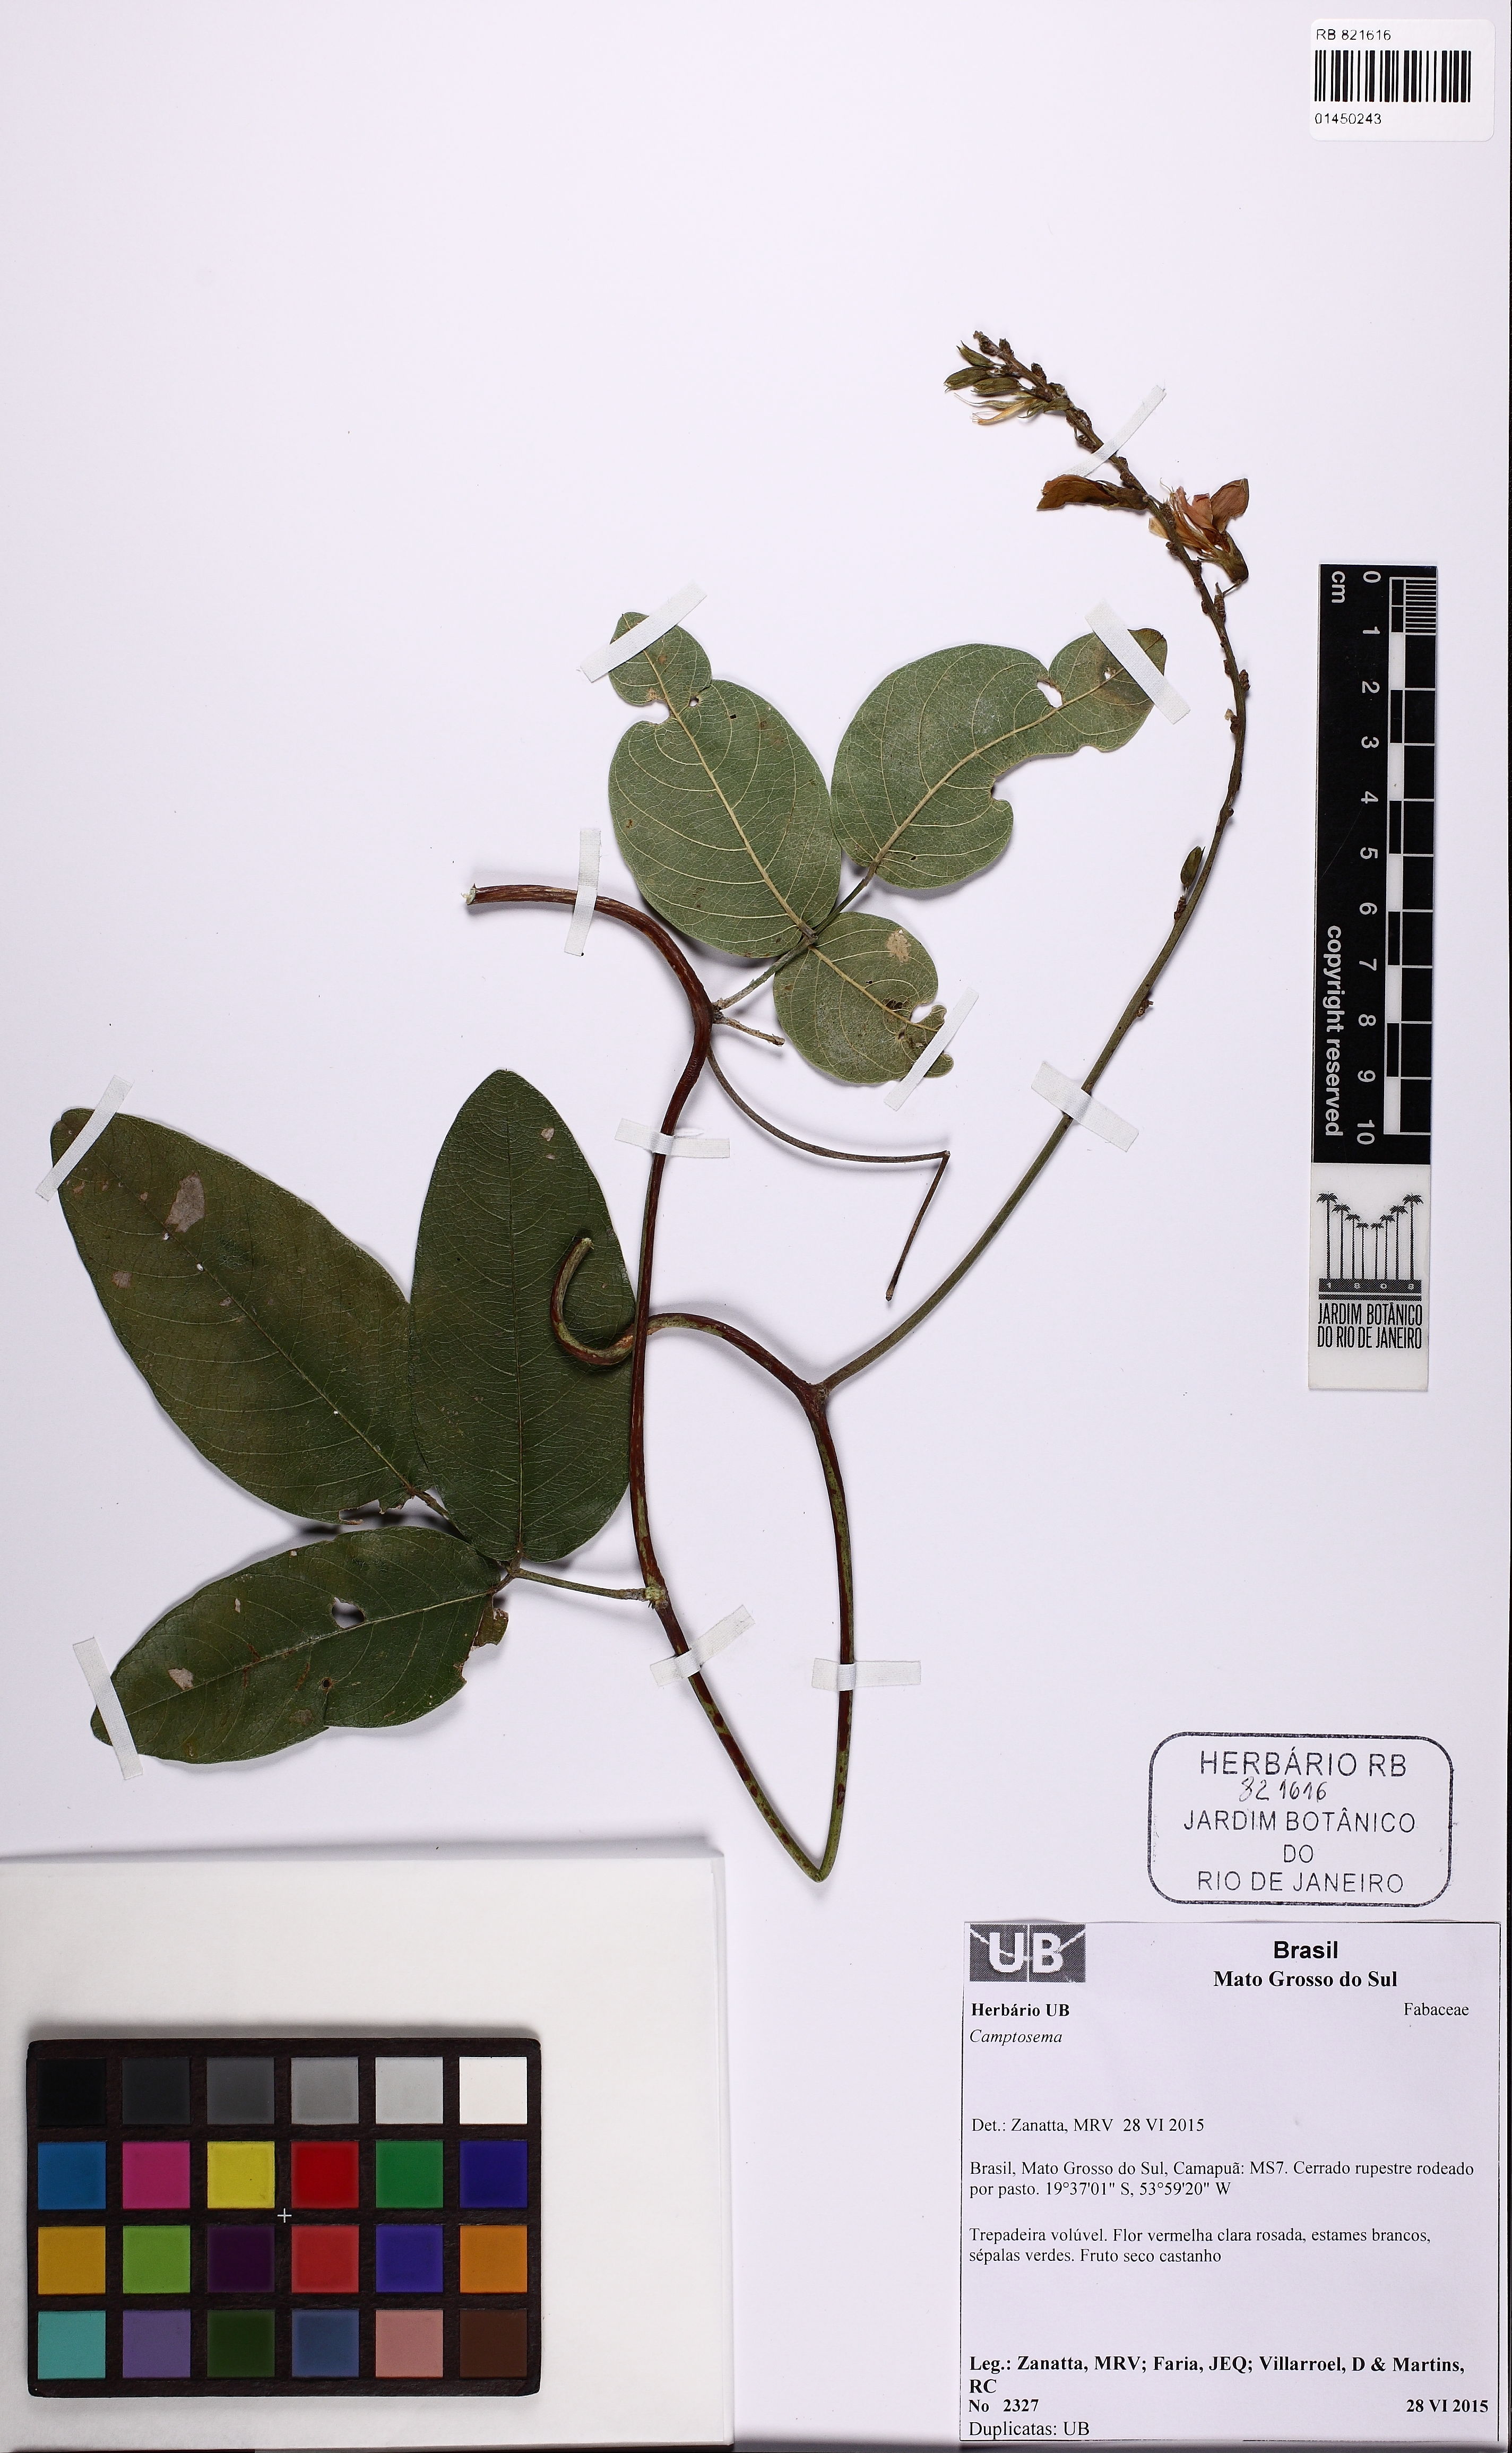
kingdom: Plantae
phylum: Tracheophyta
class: Magnoliopsida
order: Fabales
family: Fabaceae
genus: Camptosema
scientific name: Camptosema
